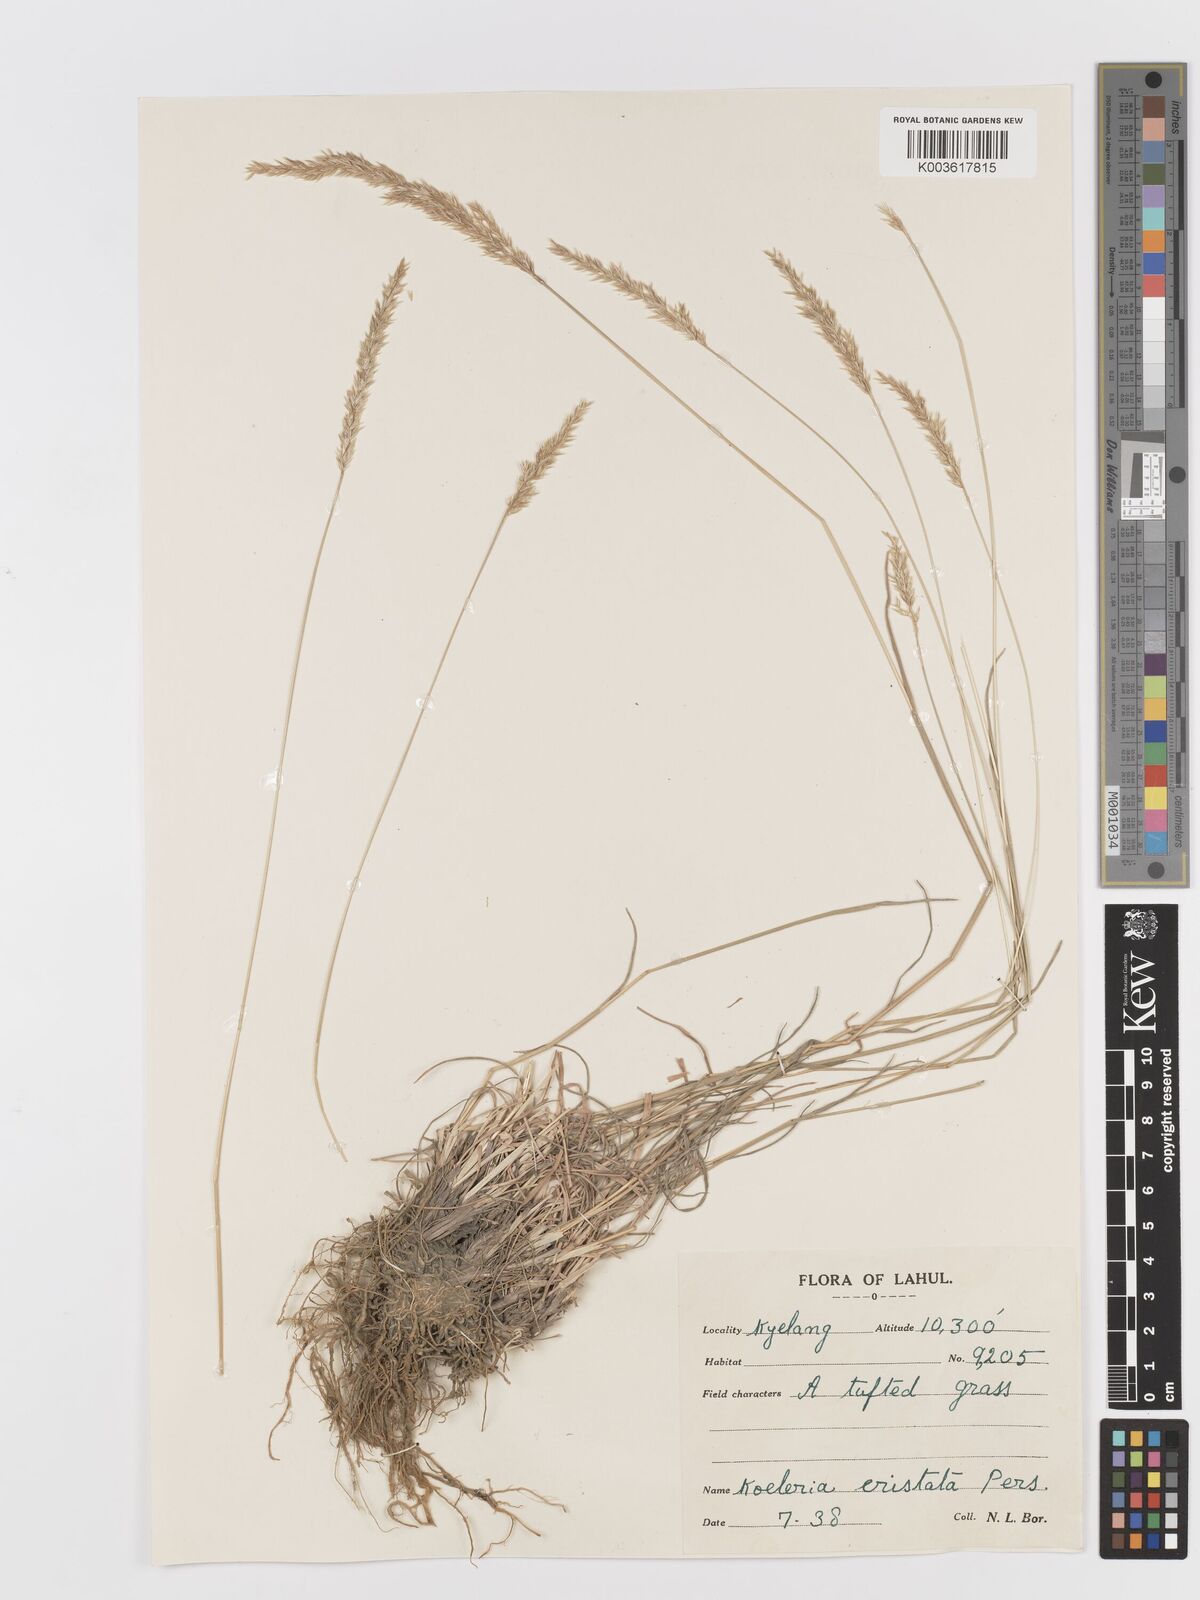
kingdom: Plantae
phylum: Tracheophyta
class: Liliopsida
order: Poales
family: Poaceae
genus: Koeleria
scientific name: Koeleria macrantha
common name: Crested hair-grass
